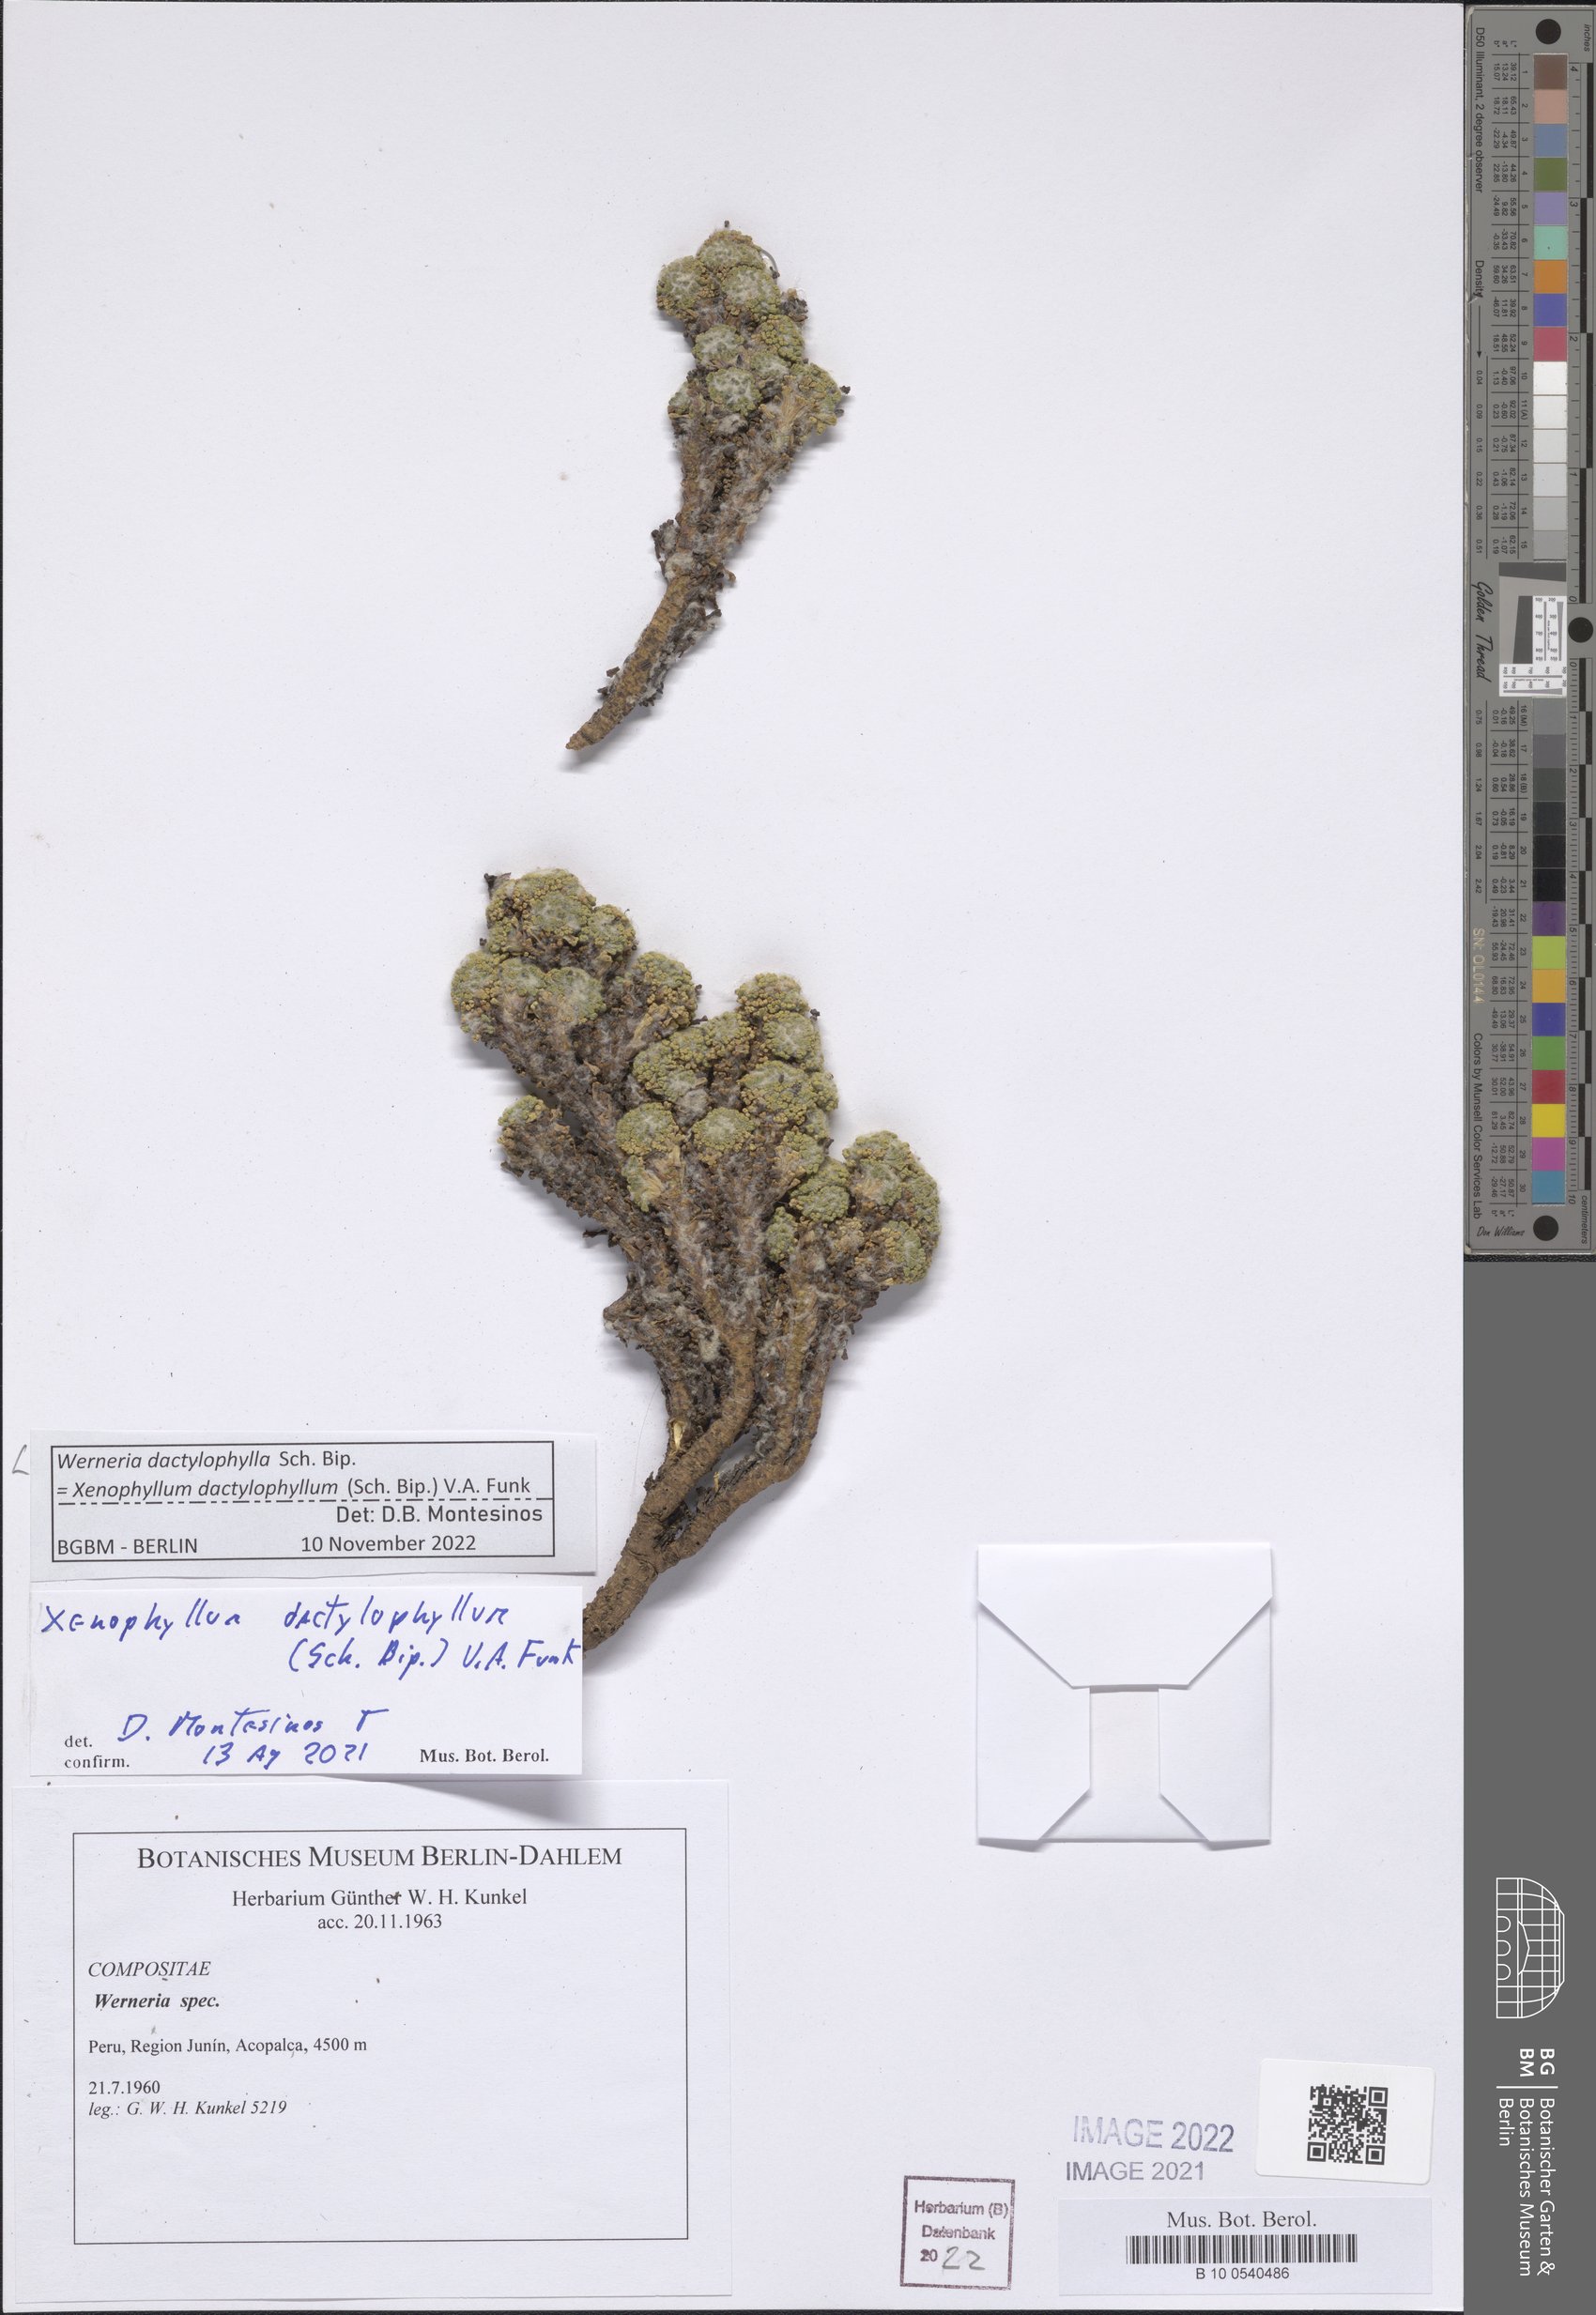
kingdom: Plantae
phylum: Tracheophyta
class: Magnoliopsida
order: Asterales
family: Asteraceae
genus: Werneria
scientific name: Werneria dactylophylla
